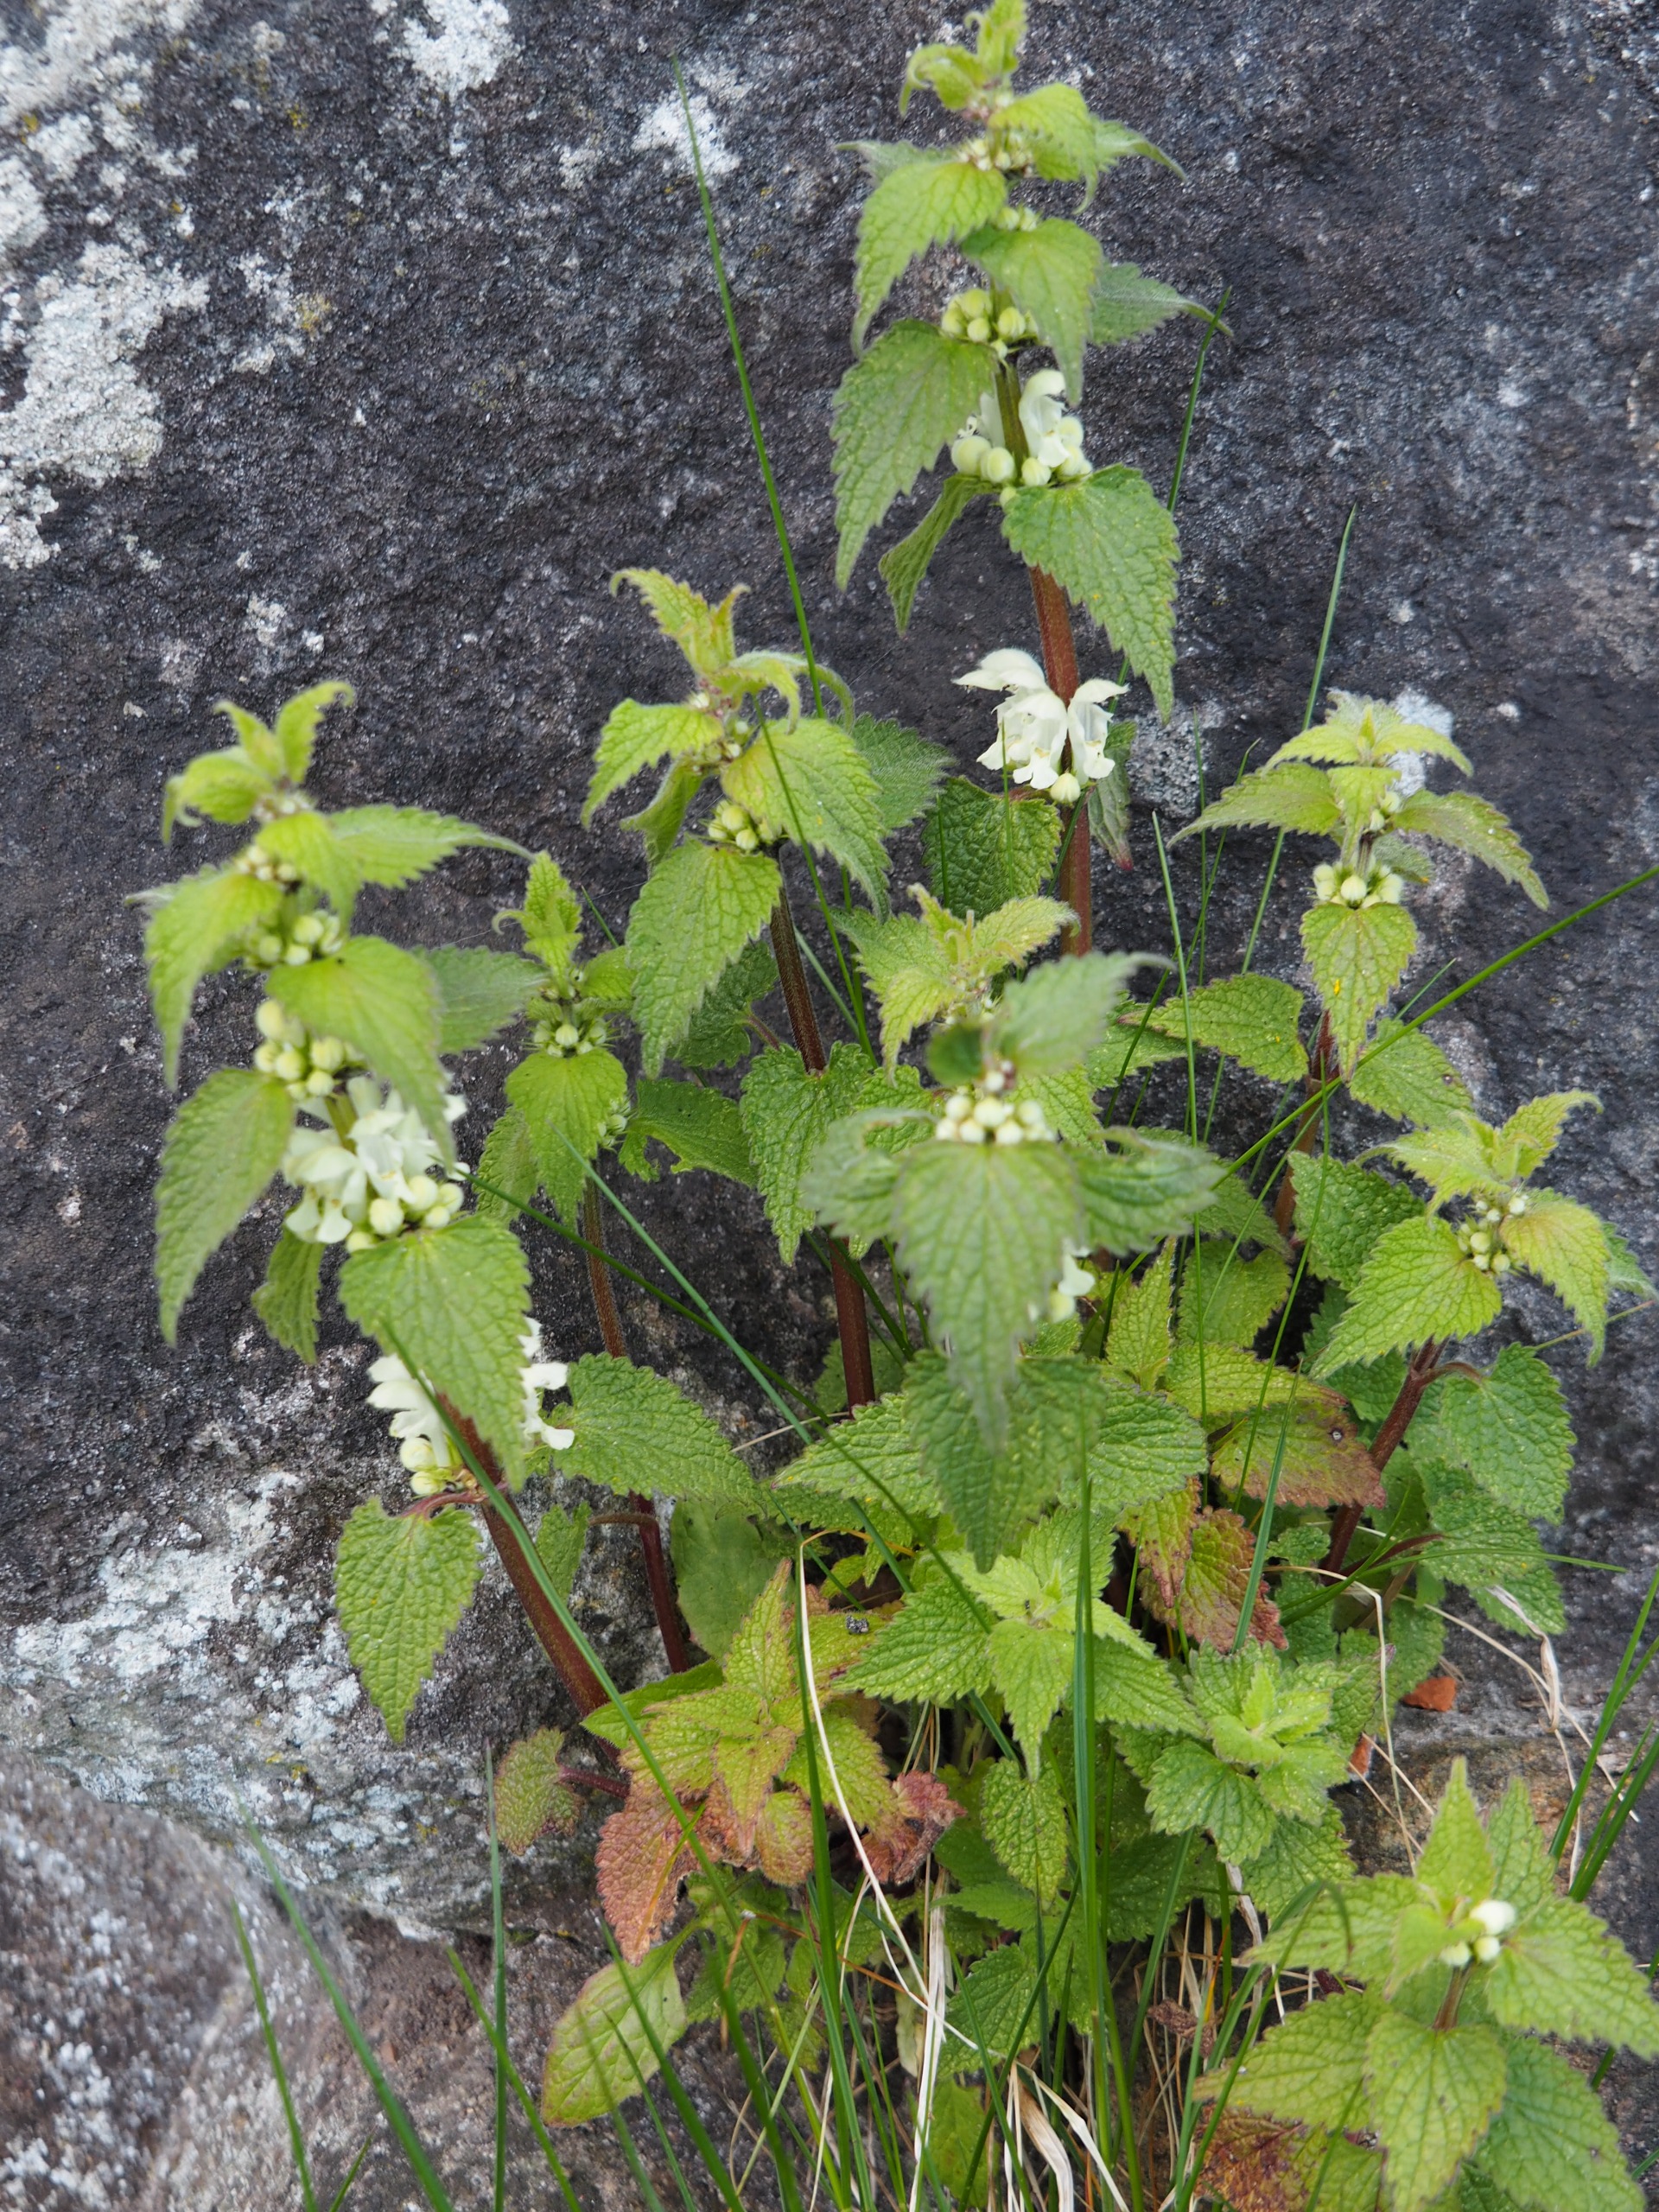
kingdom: Plantae
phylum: Tracheophyta
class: Magnoliopsida
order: Lamiales
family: Lamiaceae
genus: Lamium
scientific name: Lamium album
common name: Døvnælde
